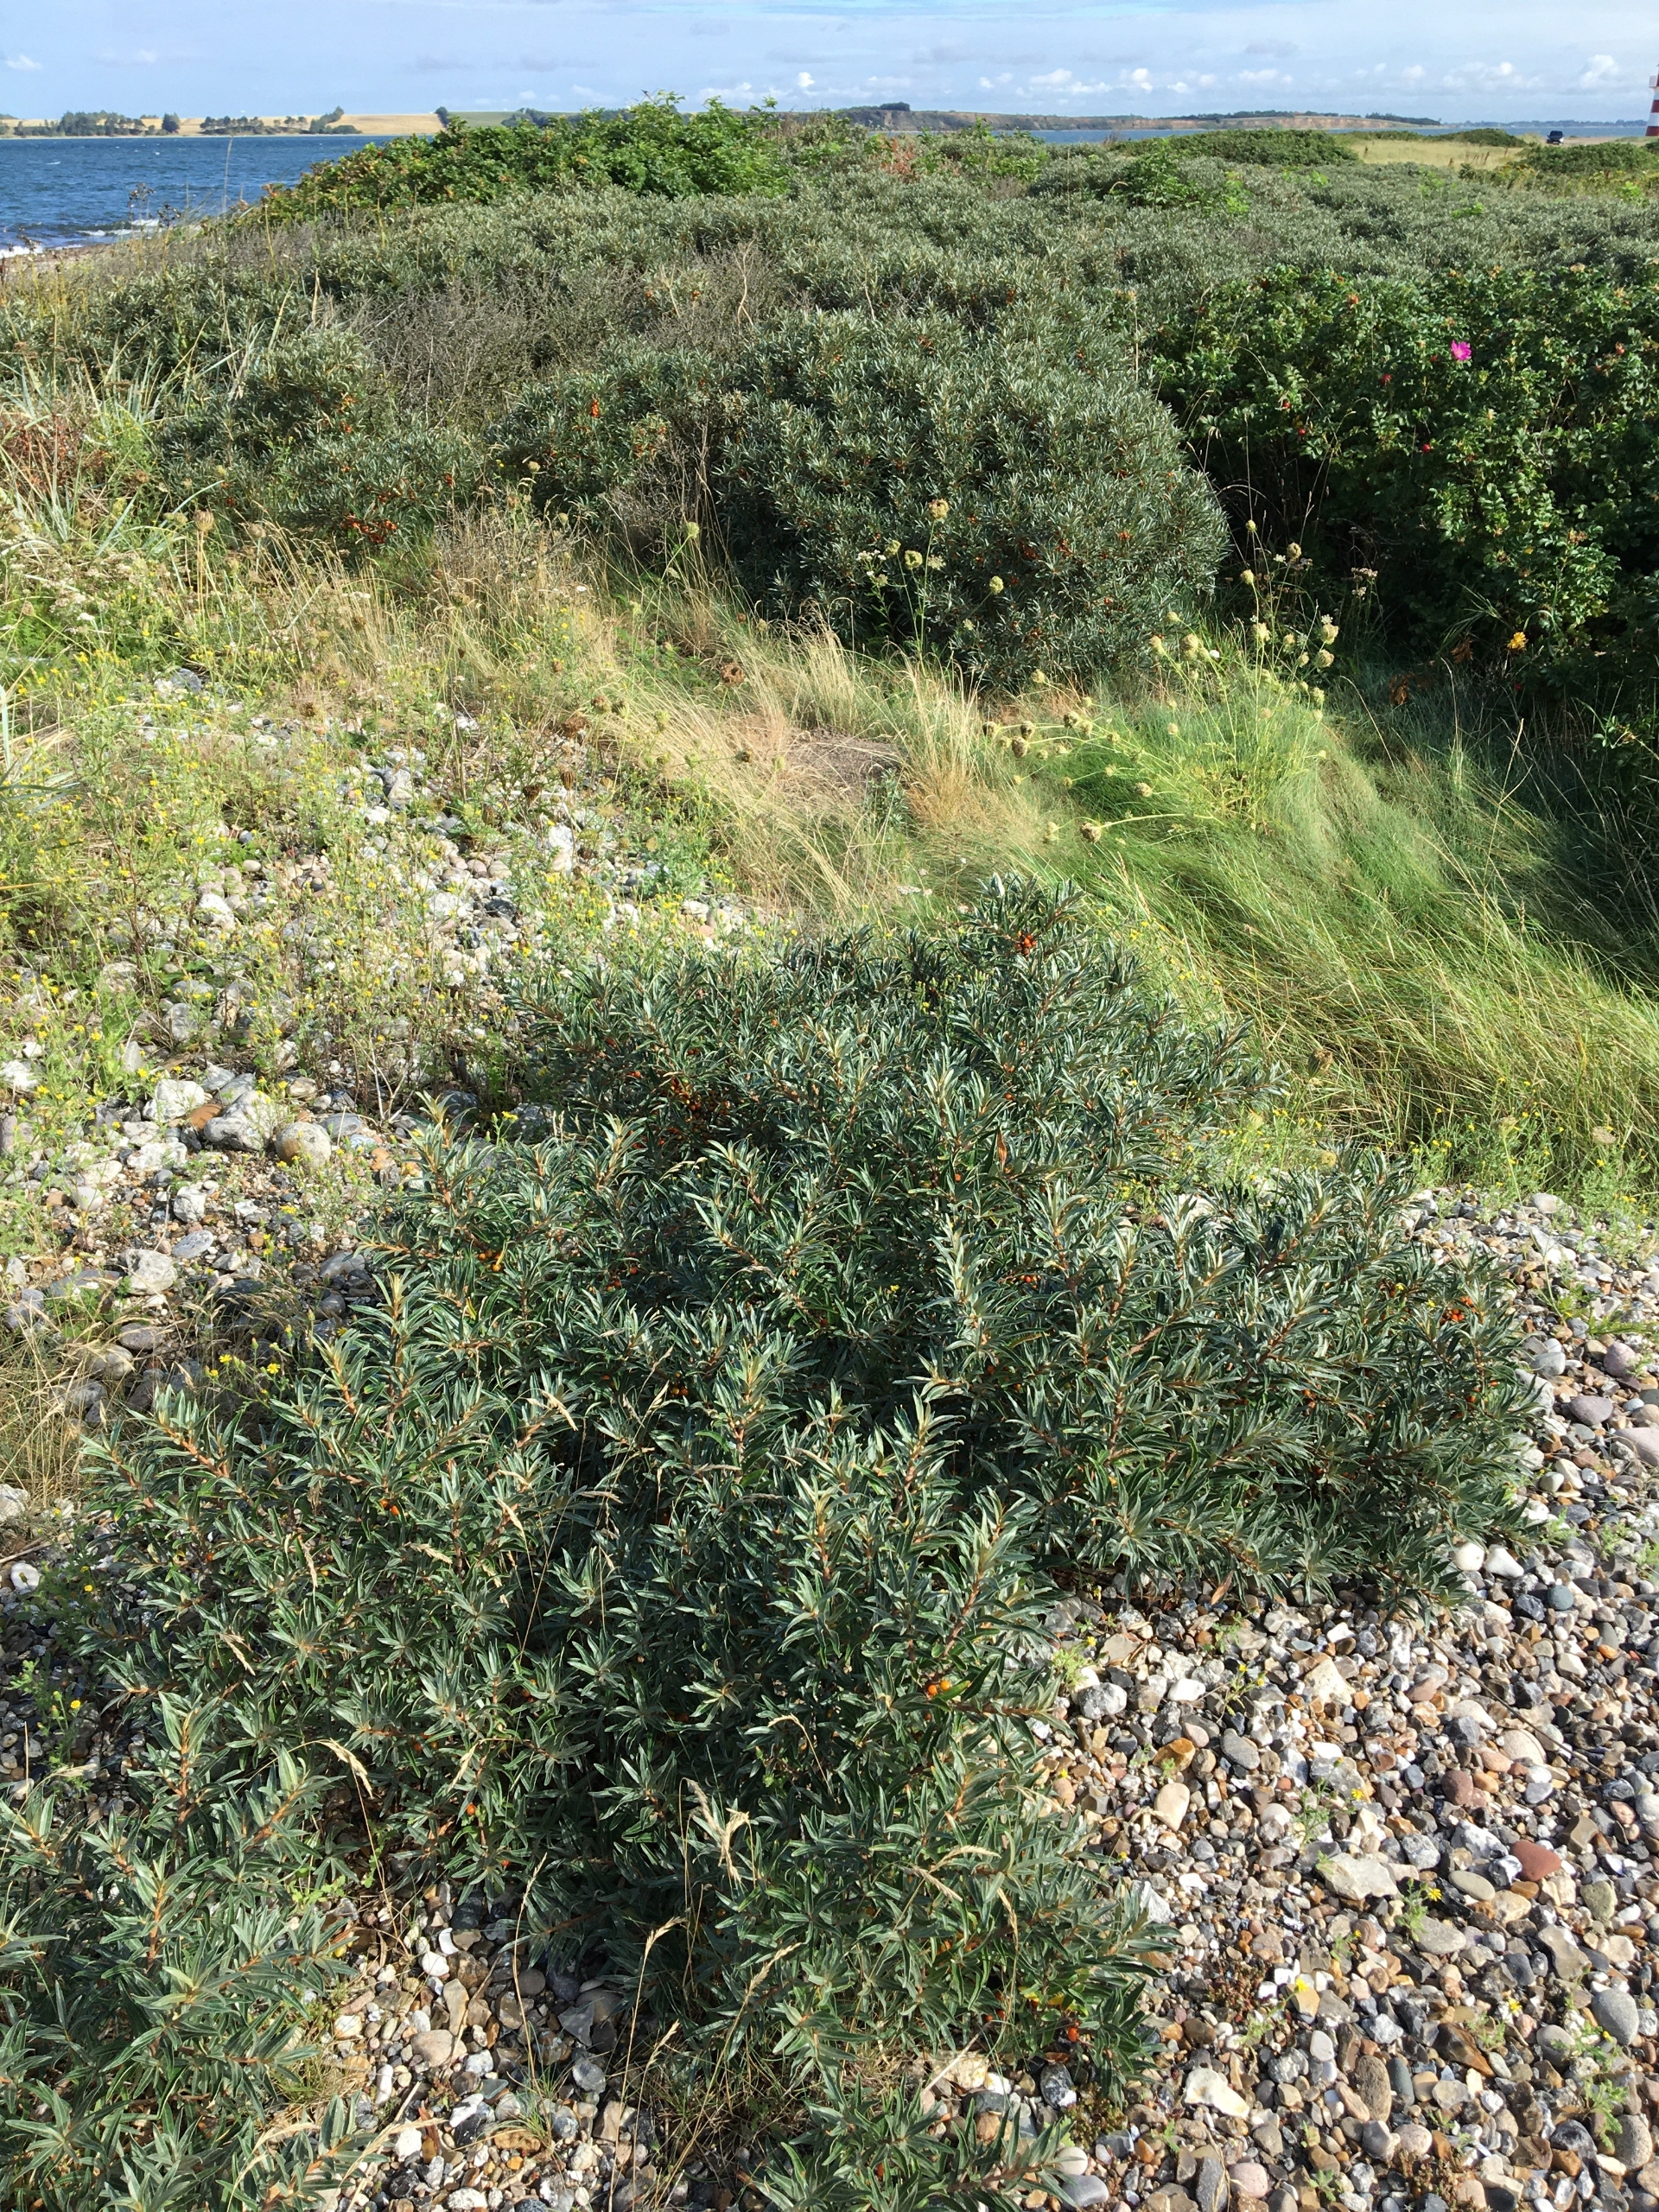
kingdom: Plantae
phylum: Tracheophyta
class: Magnoliopsida
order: Rosales
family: Elaeagnaceae
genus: Hippophae
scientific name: Hippophae rhamnoides
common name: Havtorn
